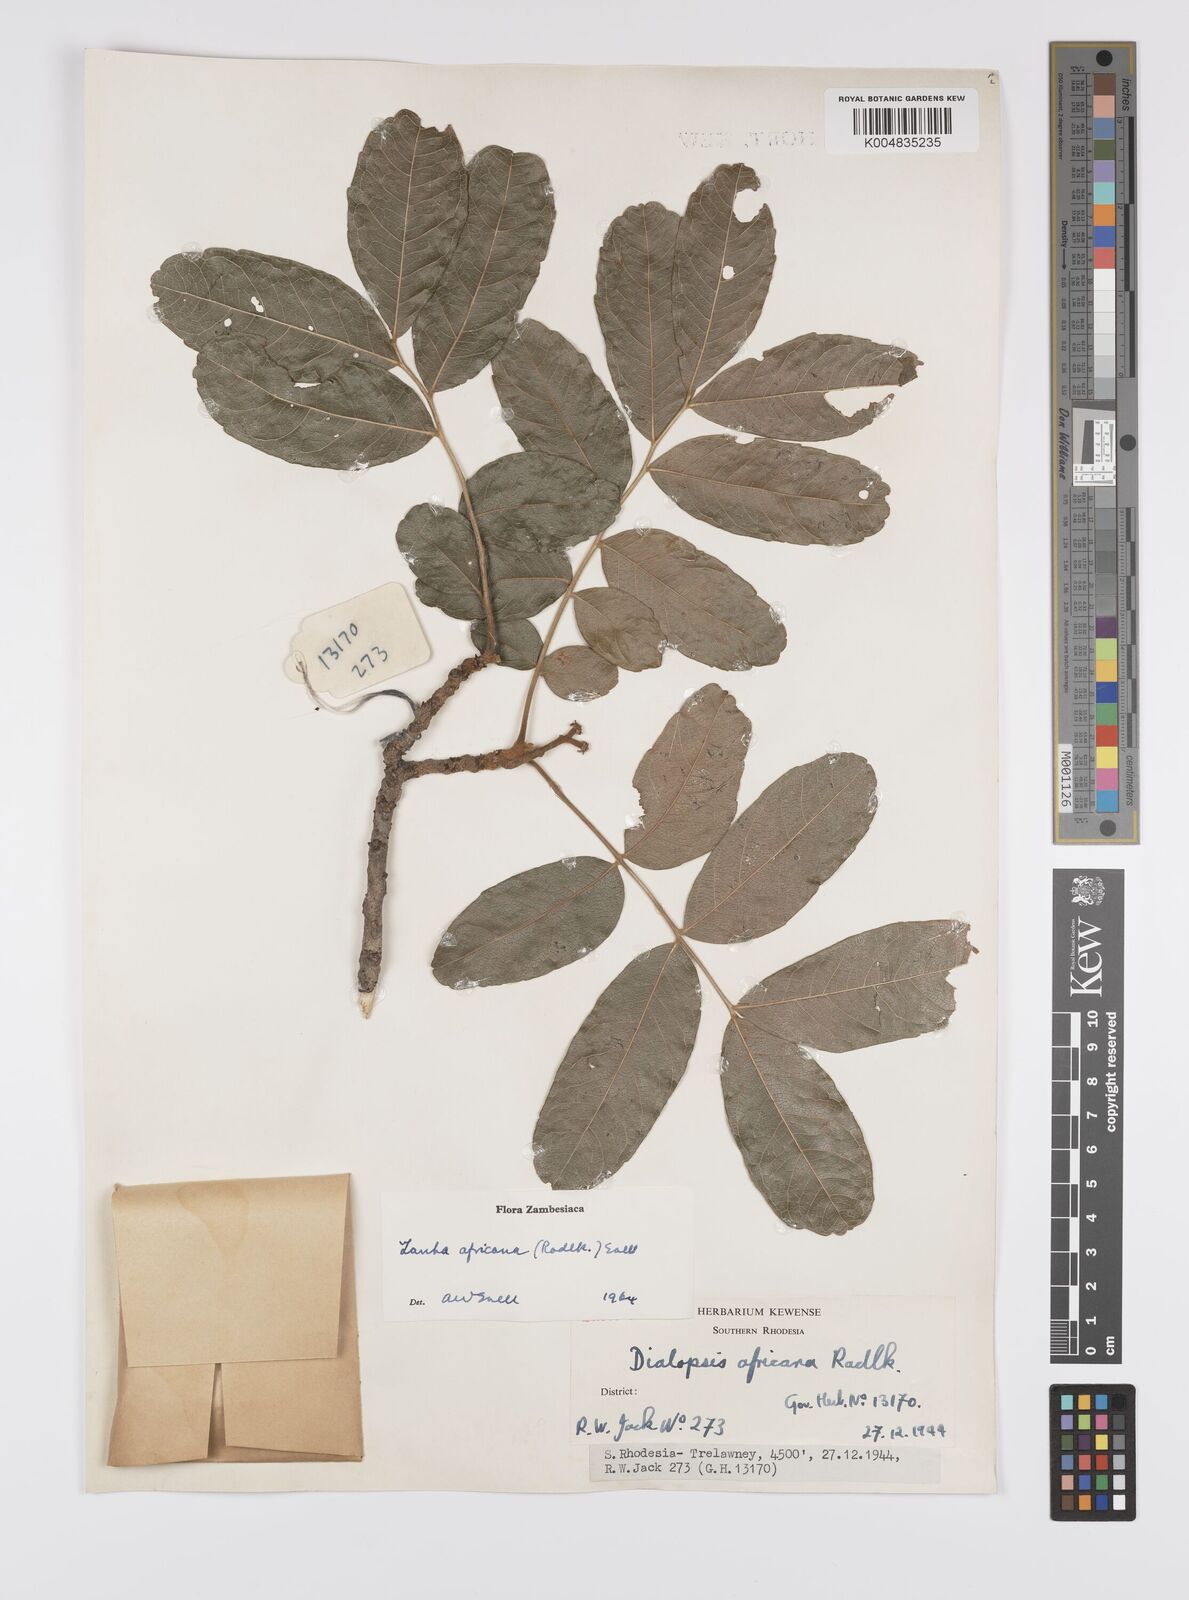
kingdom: Plantae
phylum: Tracheophyta
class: Magnoliopsida
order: Sapindales
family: Sapindaceae
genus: Zanha
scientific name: Zanha africana
